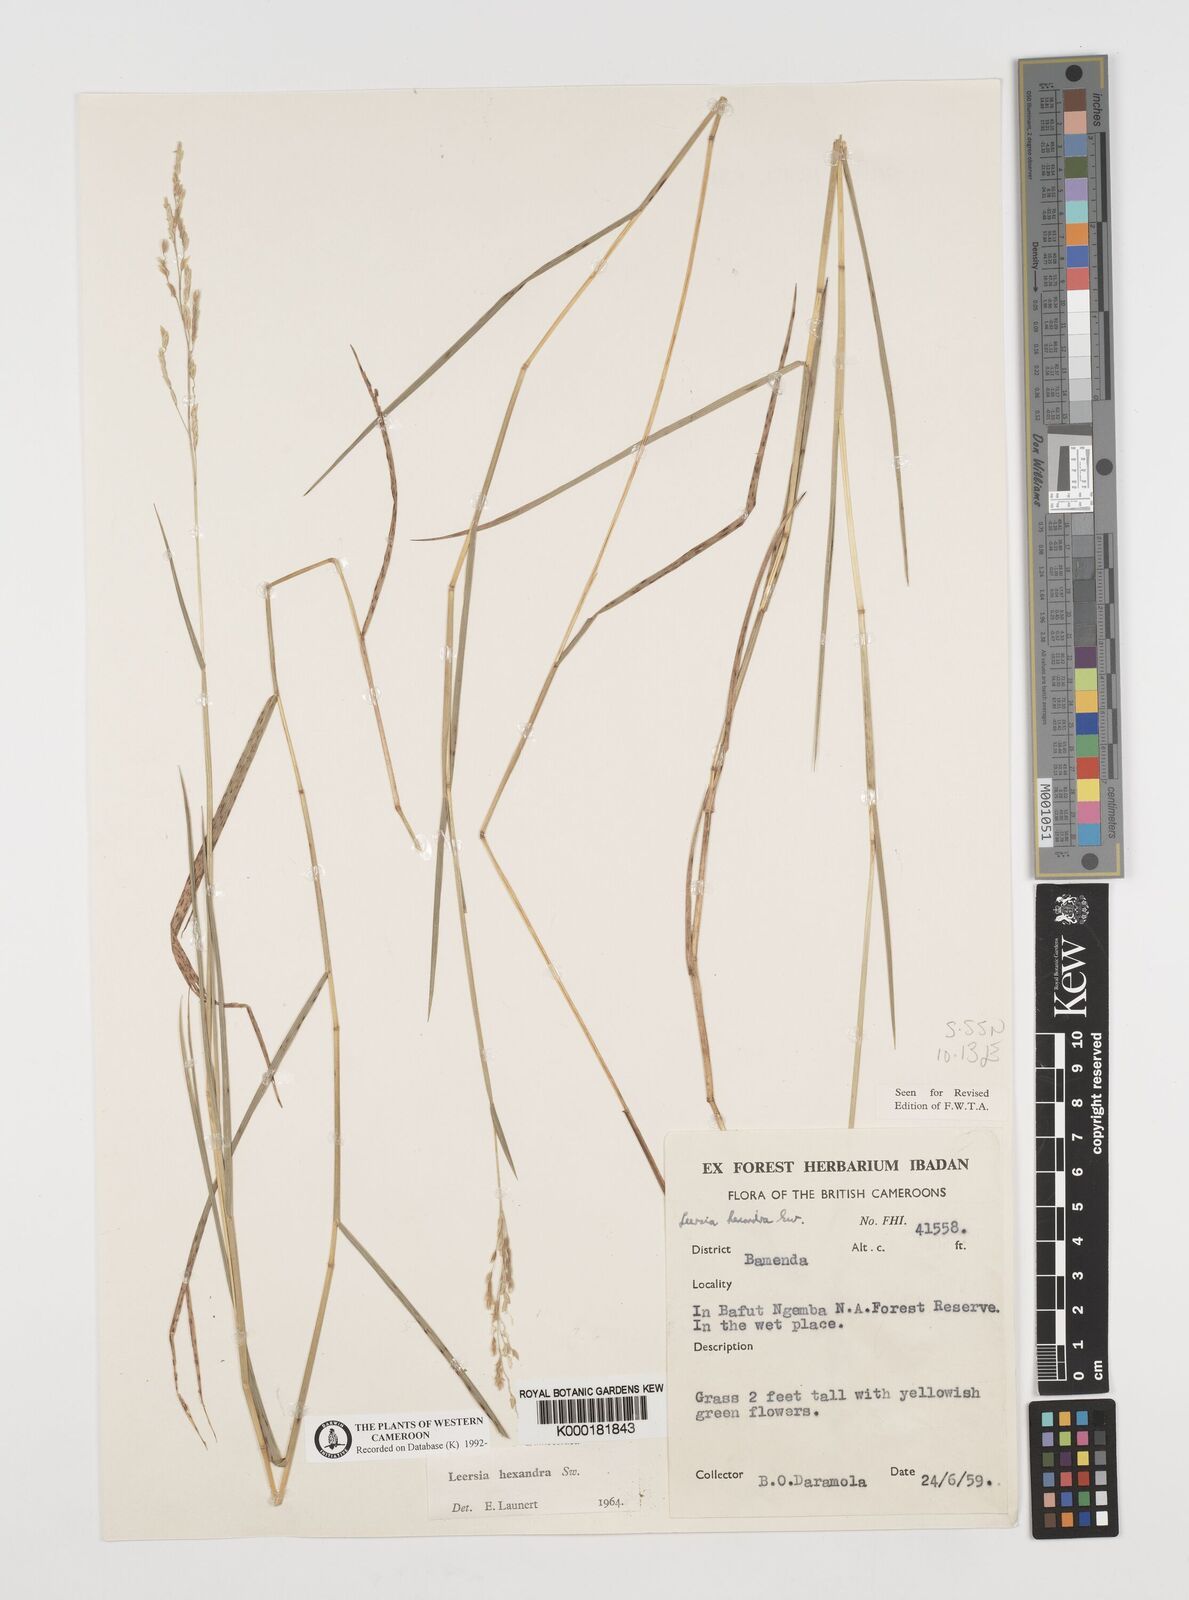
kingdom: Plantae
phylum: Tracheophyta
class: Liliopsida
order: Poales
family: Poaceae
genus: Leersia
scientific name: Leersia hexandra
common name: Southern cut grass
